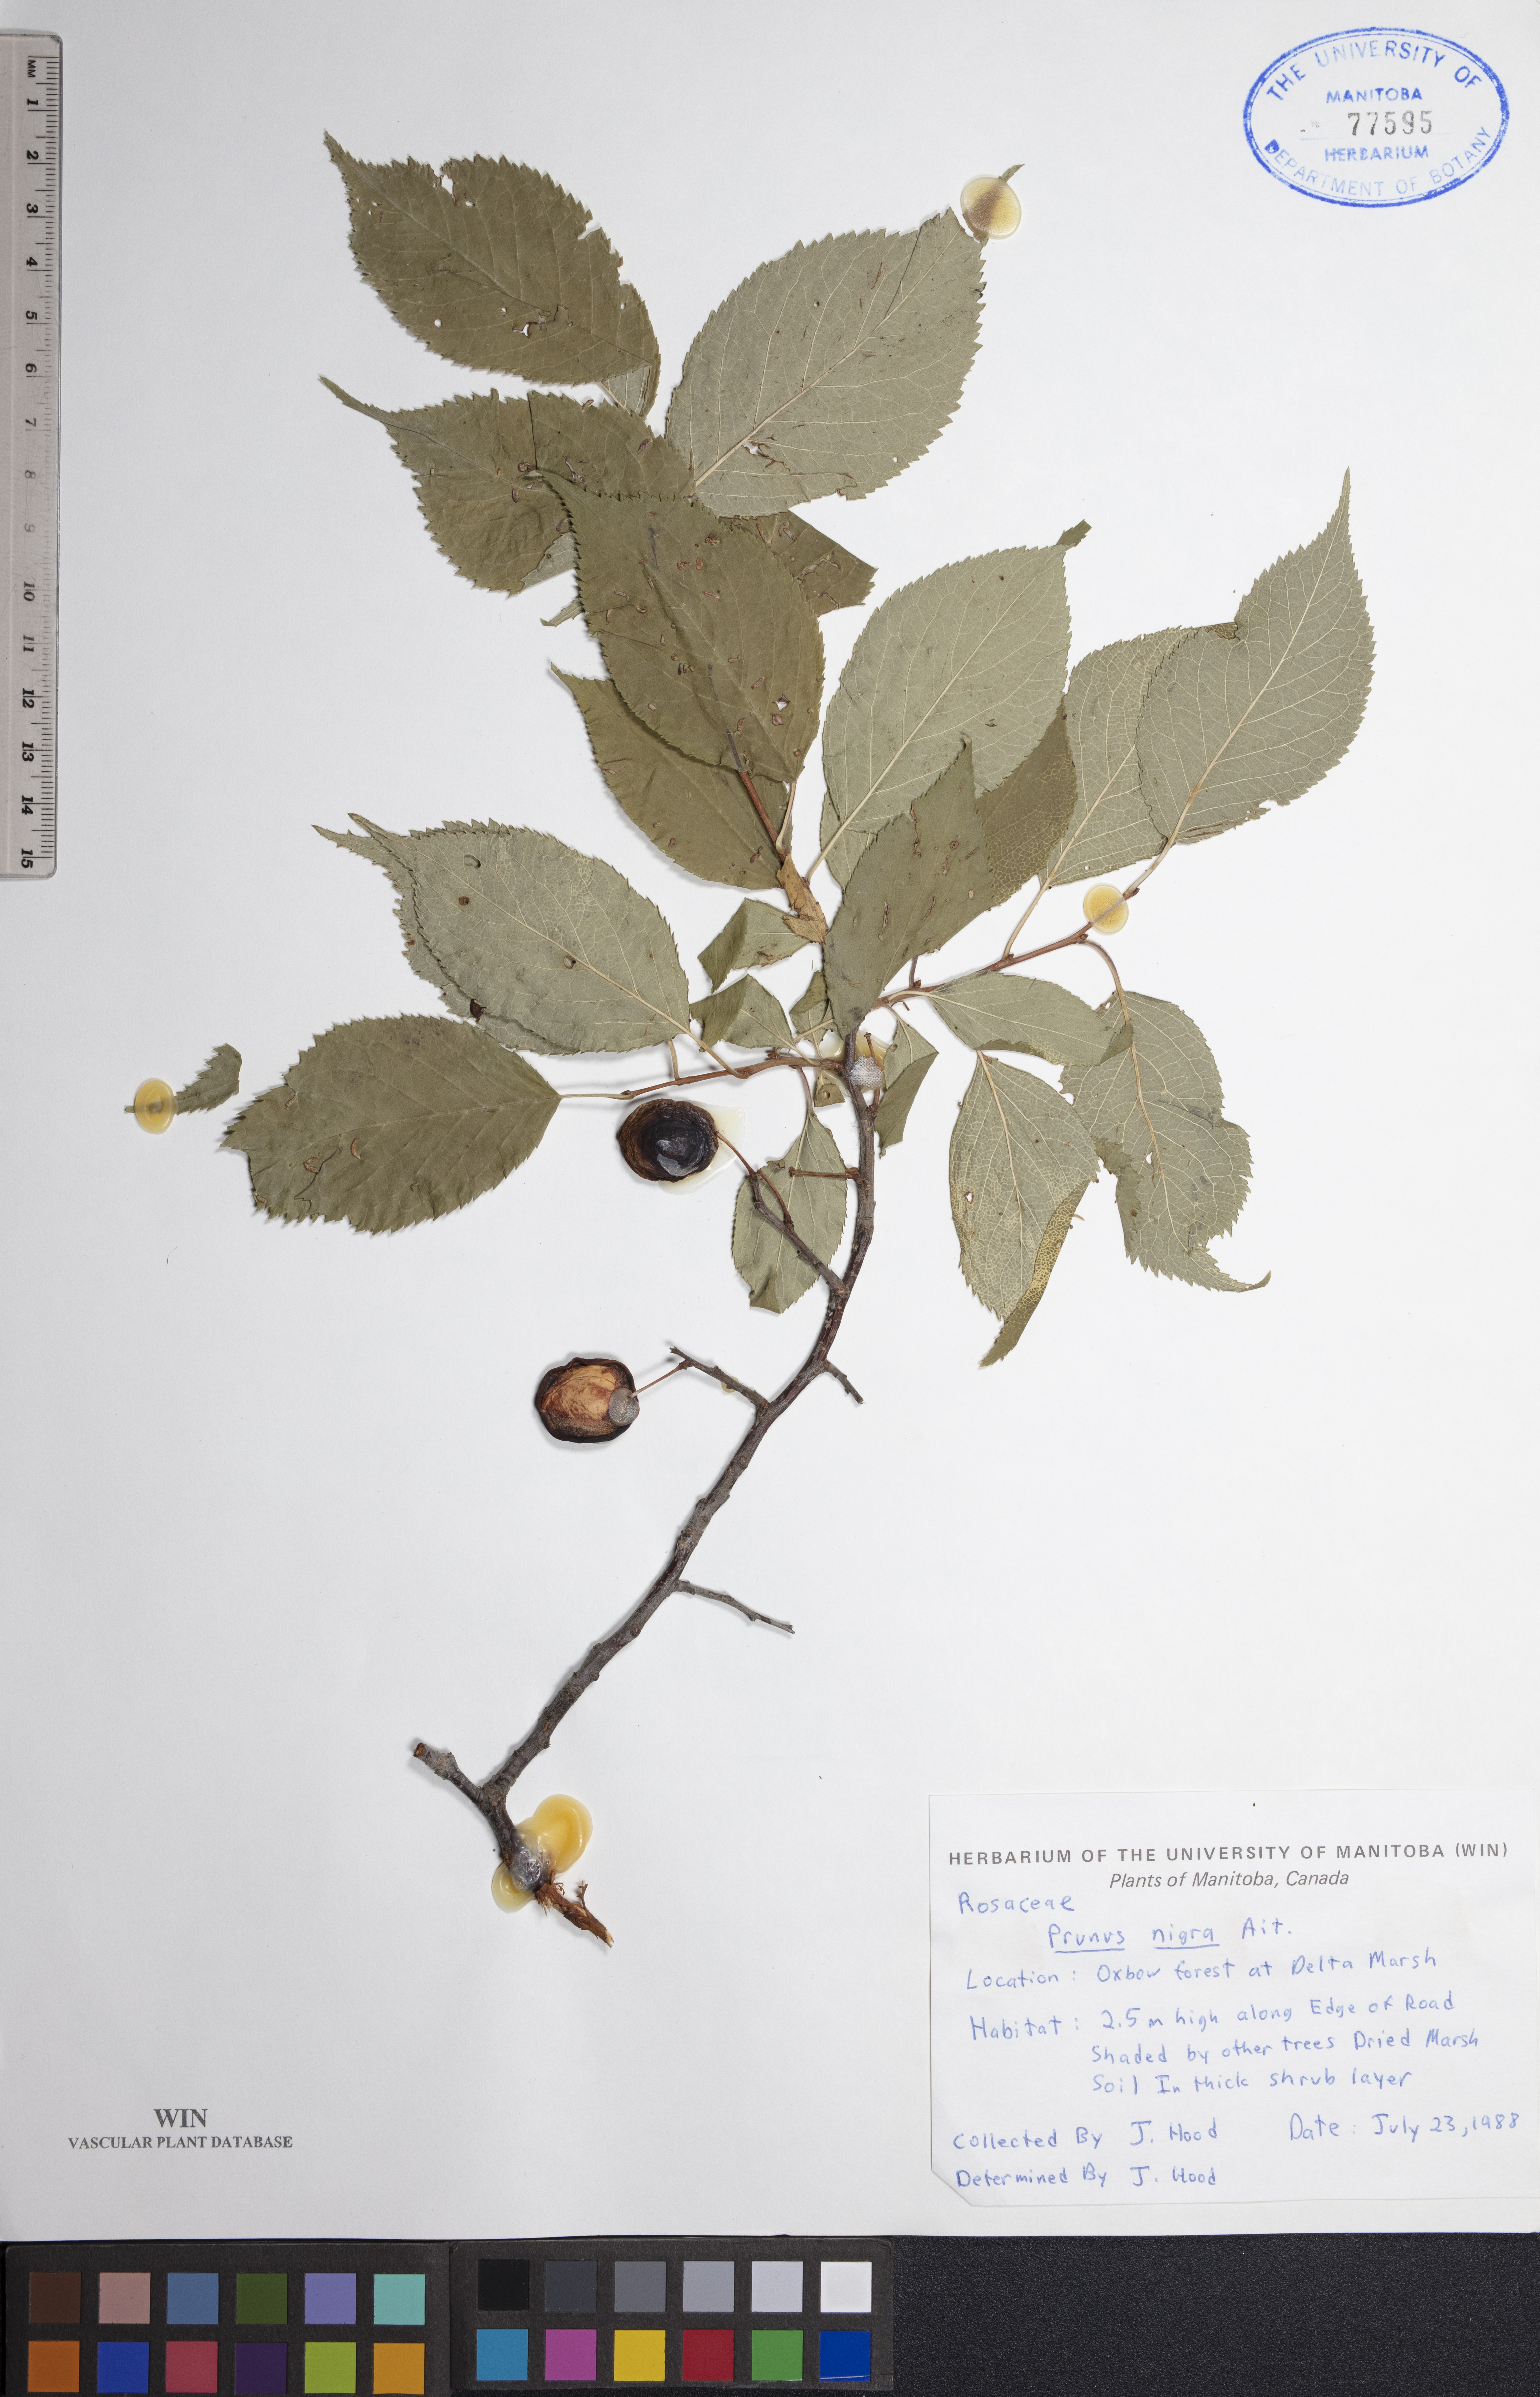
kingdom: Plantae
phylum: Tracheophyta
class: Magnoliopsida
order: Rosales
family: Rosaceae
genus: Prunus
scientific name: Prunus nigra
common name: Black plum
